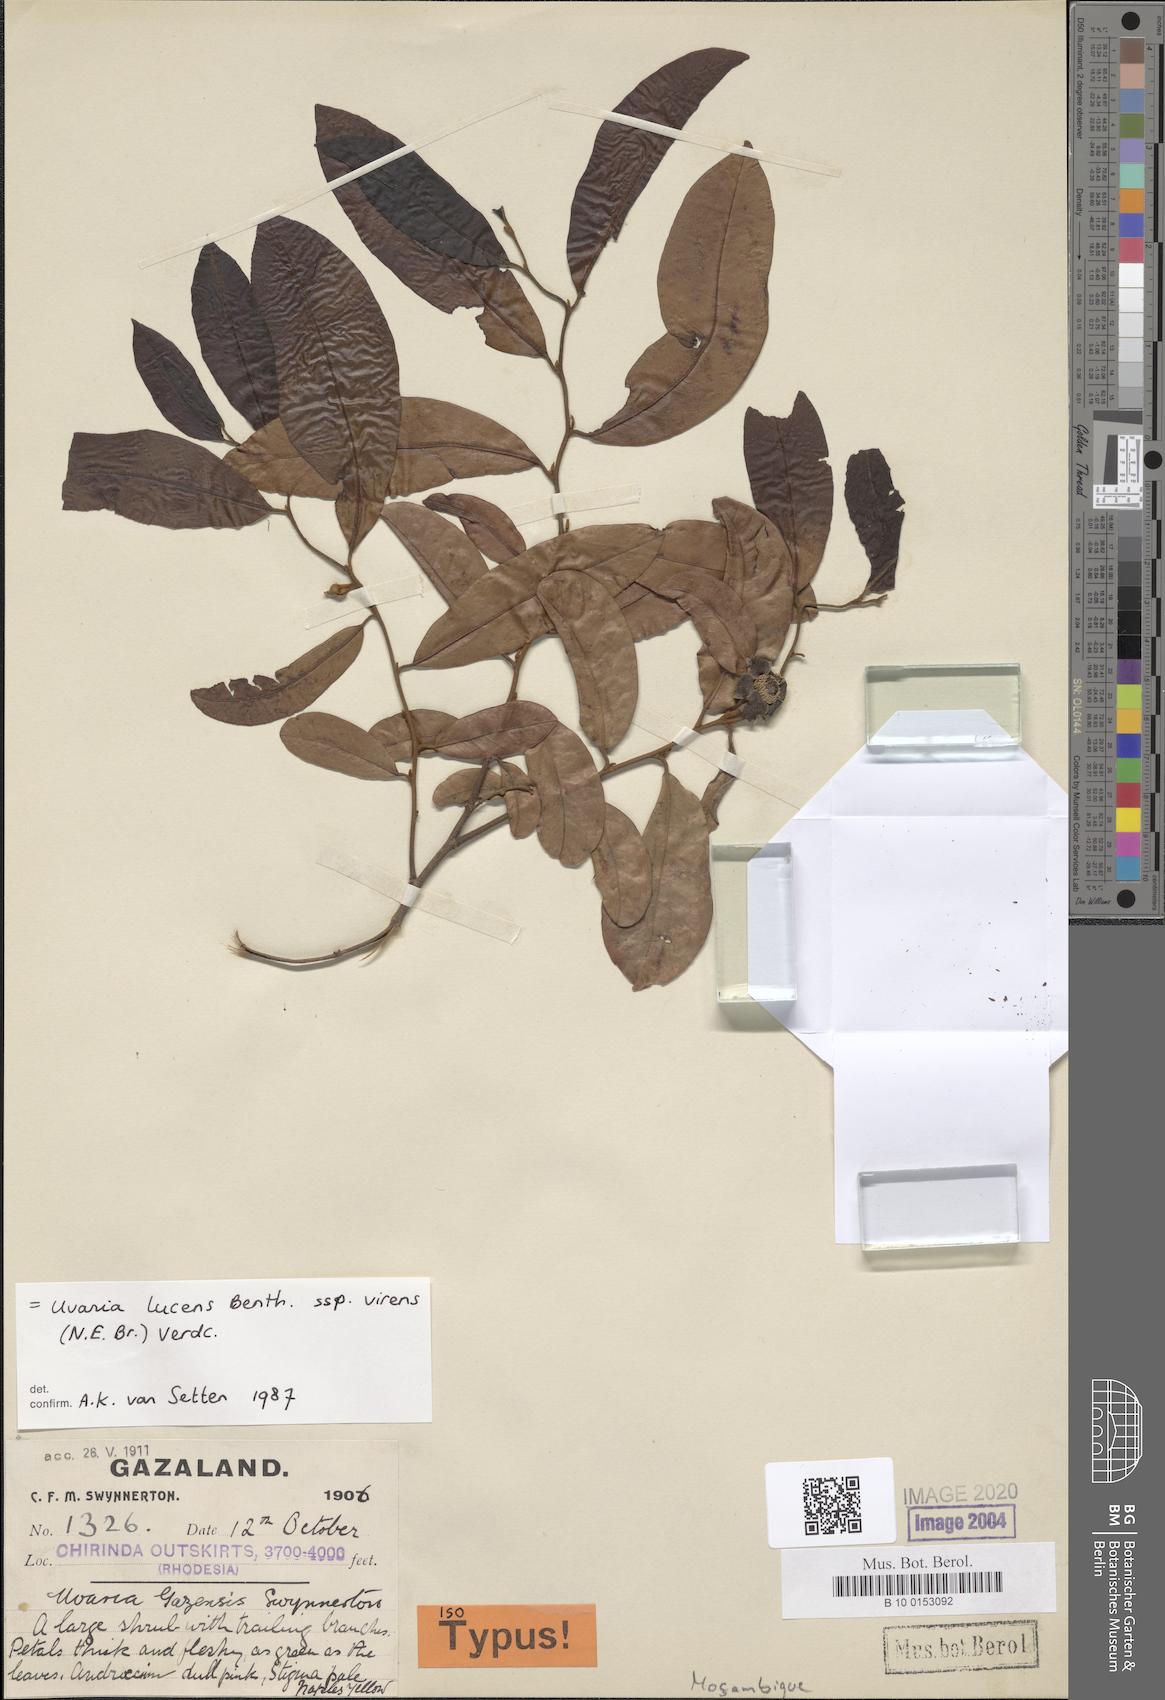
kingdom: Plantae
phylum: Tracheophyta
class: Magnoliopsida
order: Magnoliales
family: Annonaceae
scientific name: Annonaceae
